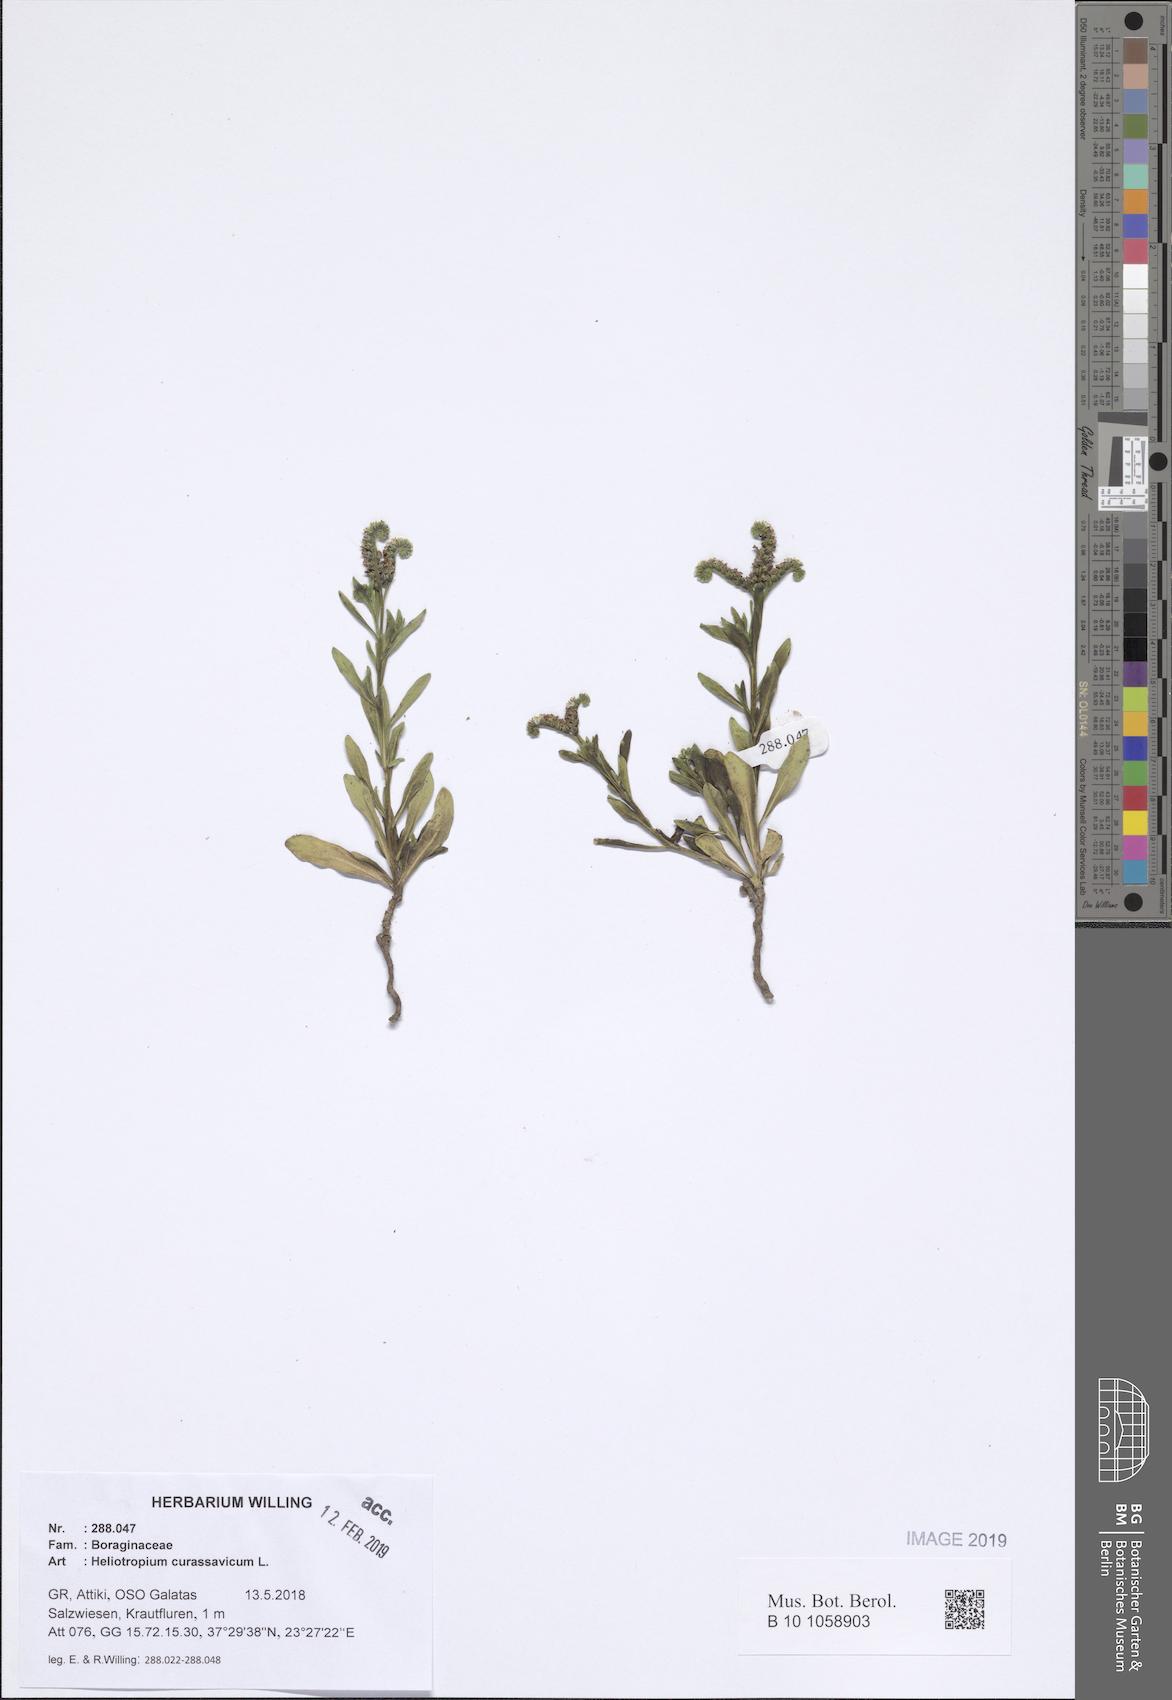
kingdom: Plantae
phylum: Tracheophyta
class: Magnoliopsida
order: Boraginales
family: Heliotropiaceae
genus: Heliotropium
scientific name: Heliotropium curassavicum
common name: Seaside heliotrope
